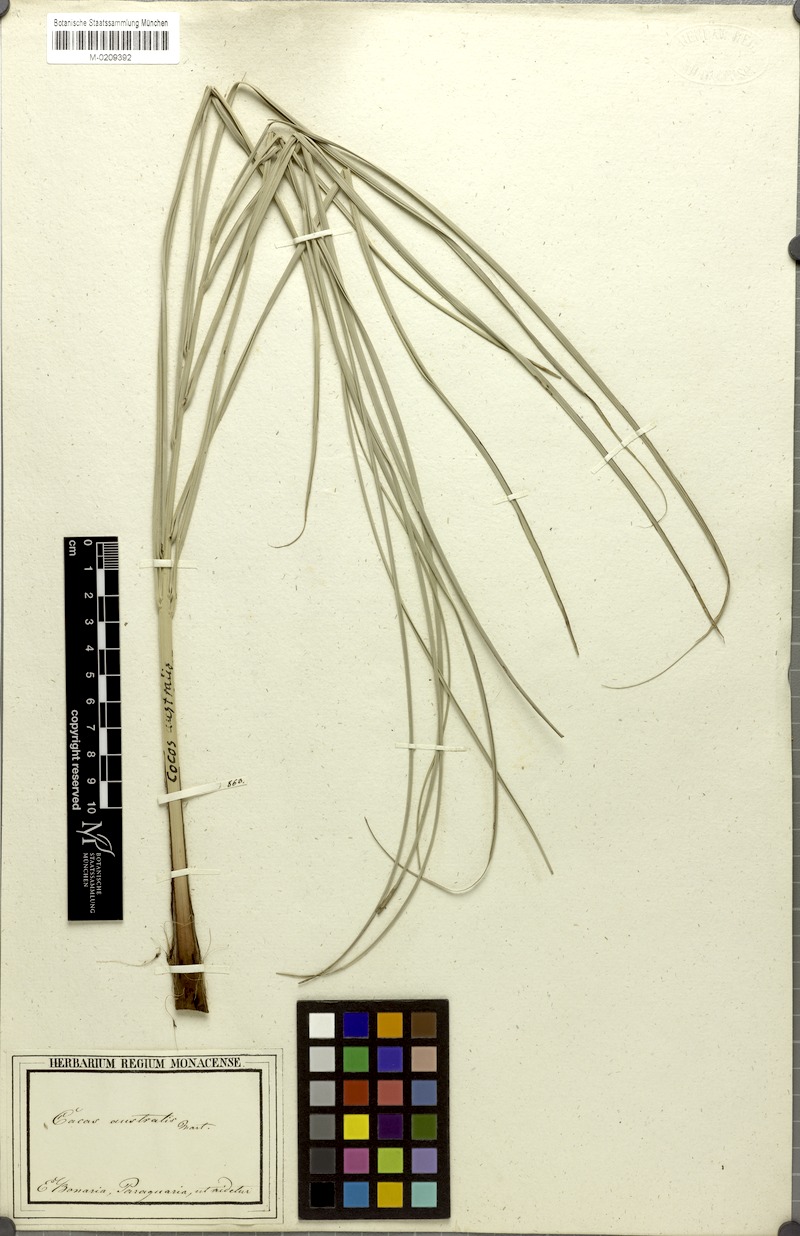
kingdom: Plantae
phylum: Tracheophyta
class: Liliopsida
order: Arecales
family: Arecaceae
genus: Syagrus
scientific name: Syagrus romanzoffiana
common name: Queen palm
